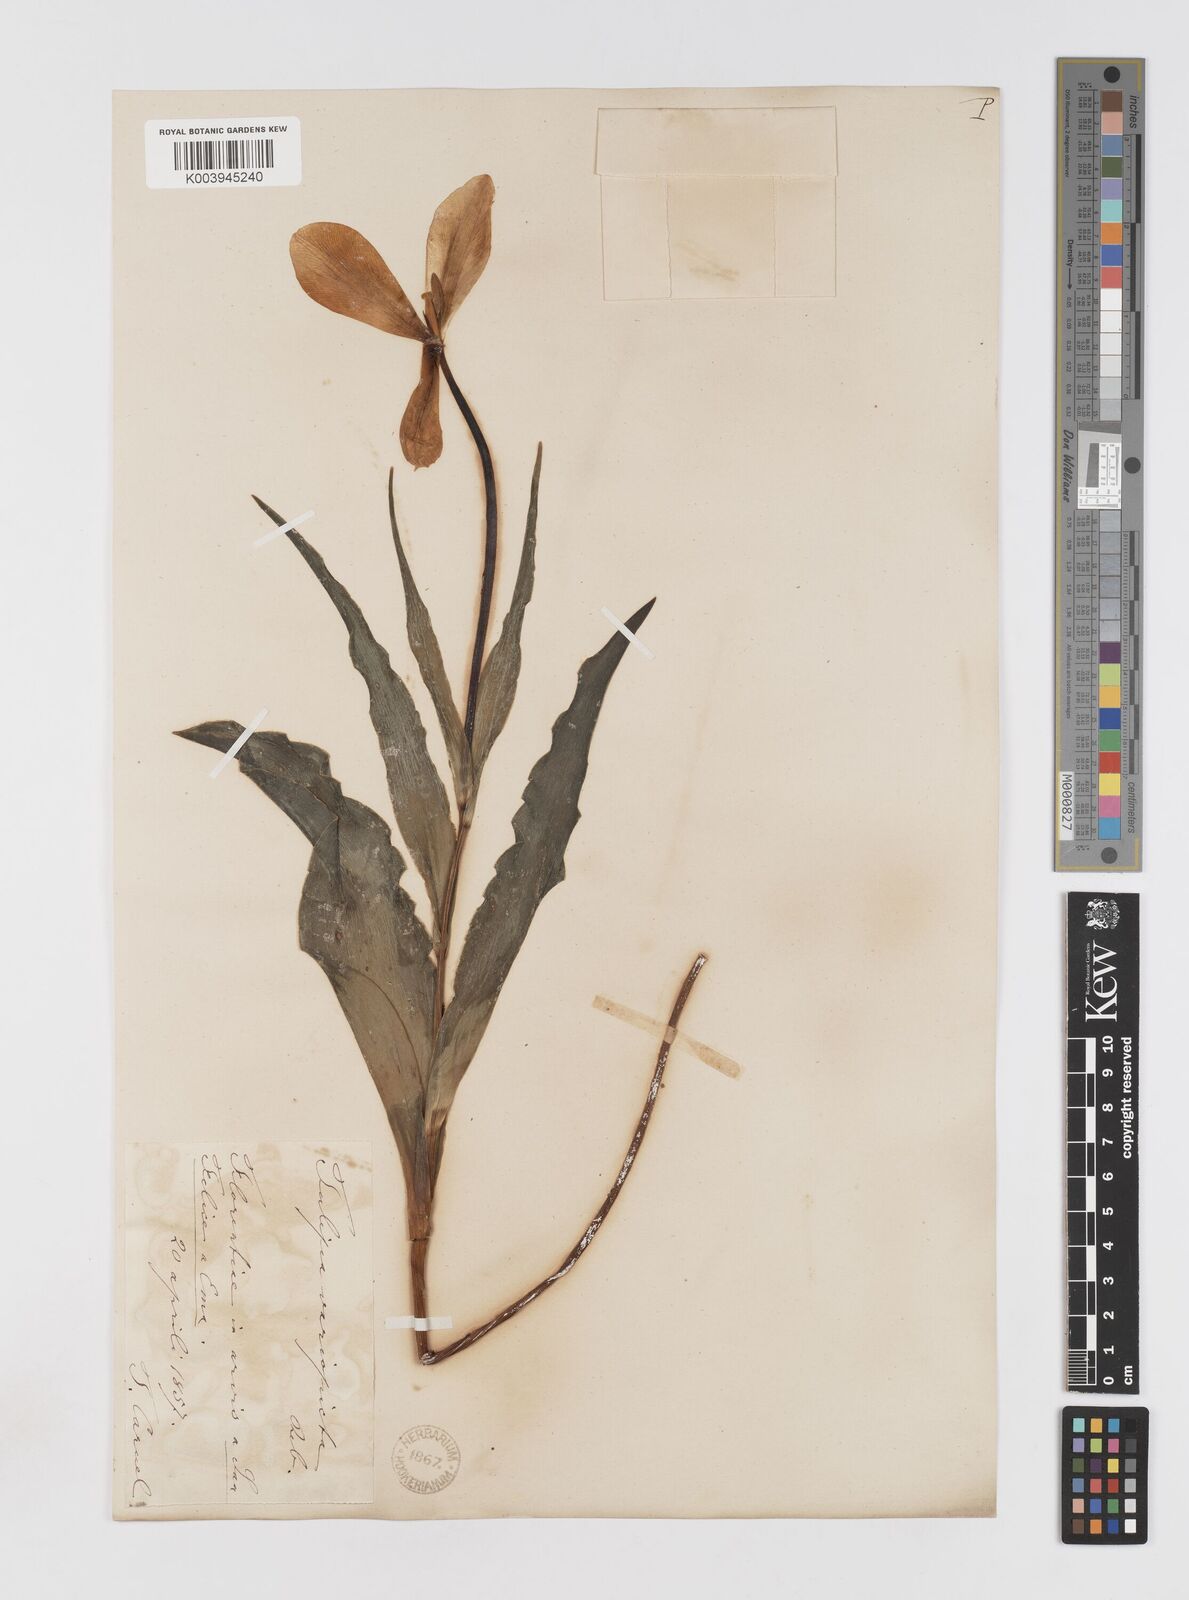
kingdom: Plantae
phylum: Tracheophyta
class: Liliopsida
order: Liliales
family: Liliaceae
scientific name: Liliaceae
